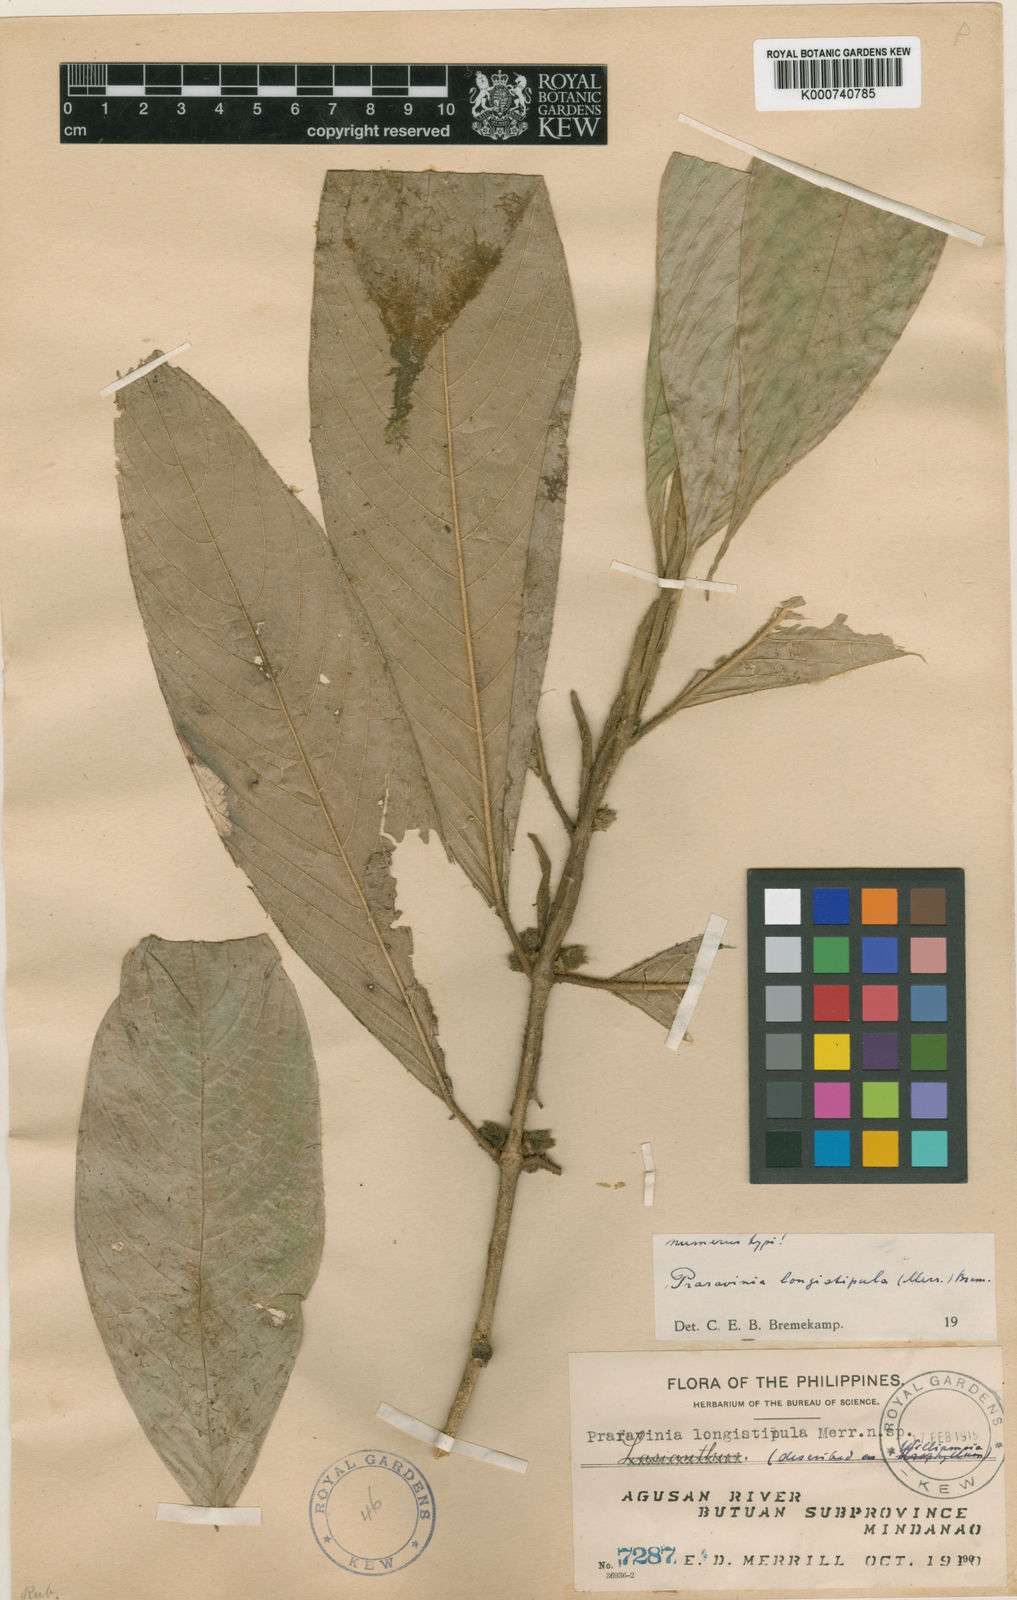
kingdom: Plantae
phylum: Tracheophyta
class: Magnoliopsida
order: Gentianales
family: Rubiaceae
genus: Praravinia
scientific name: Praravinia longistipula
